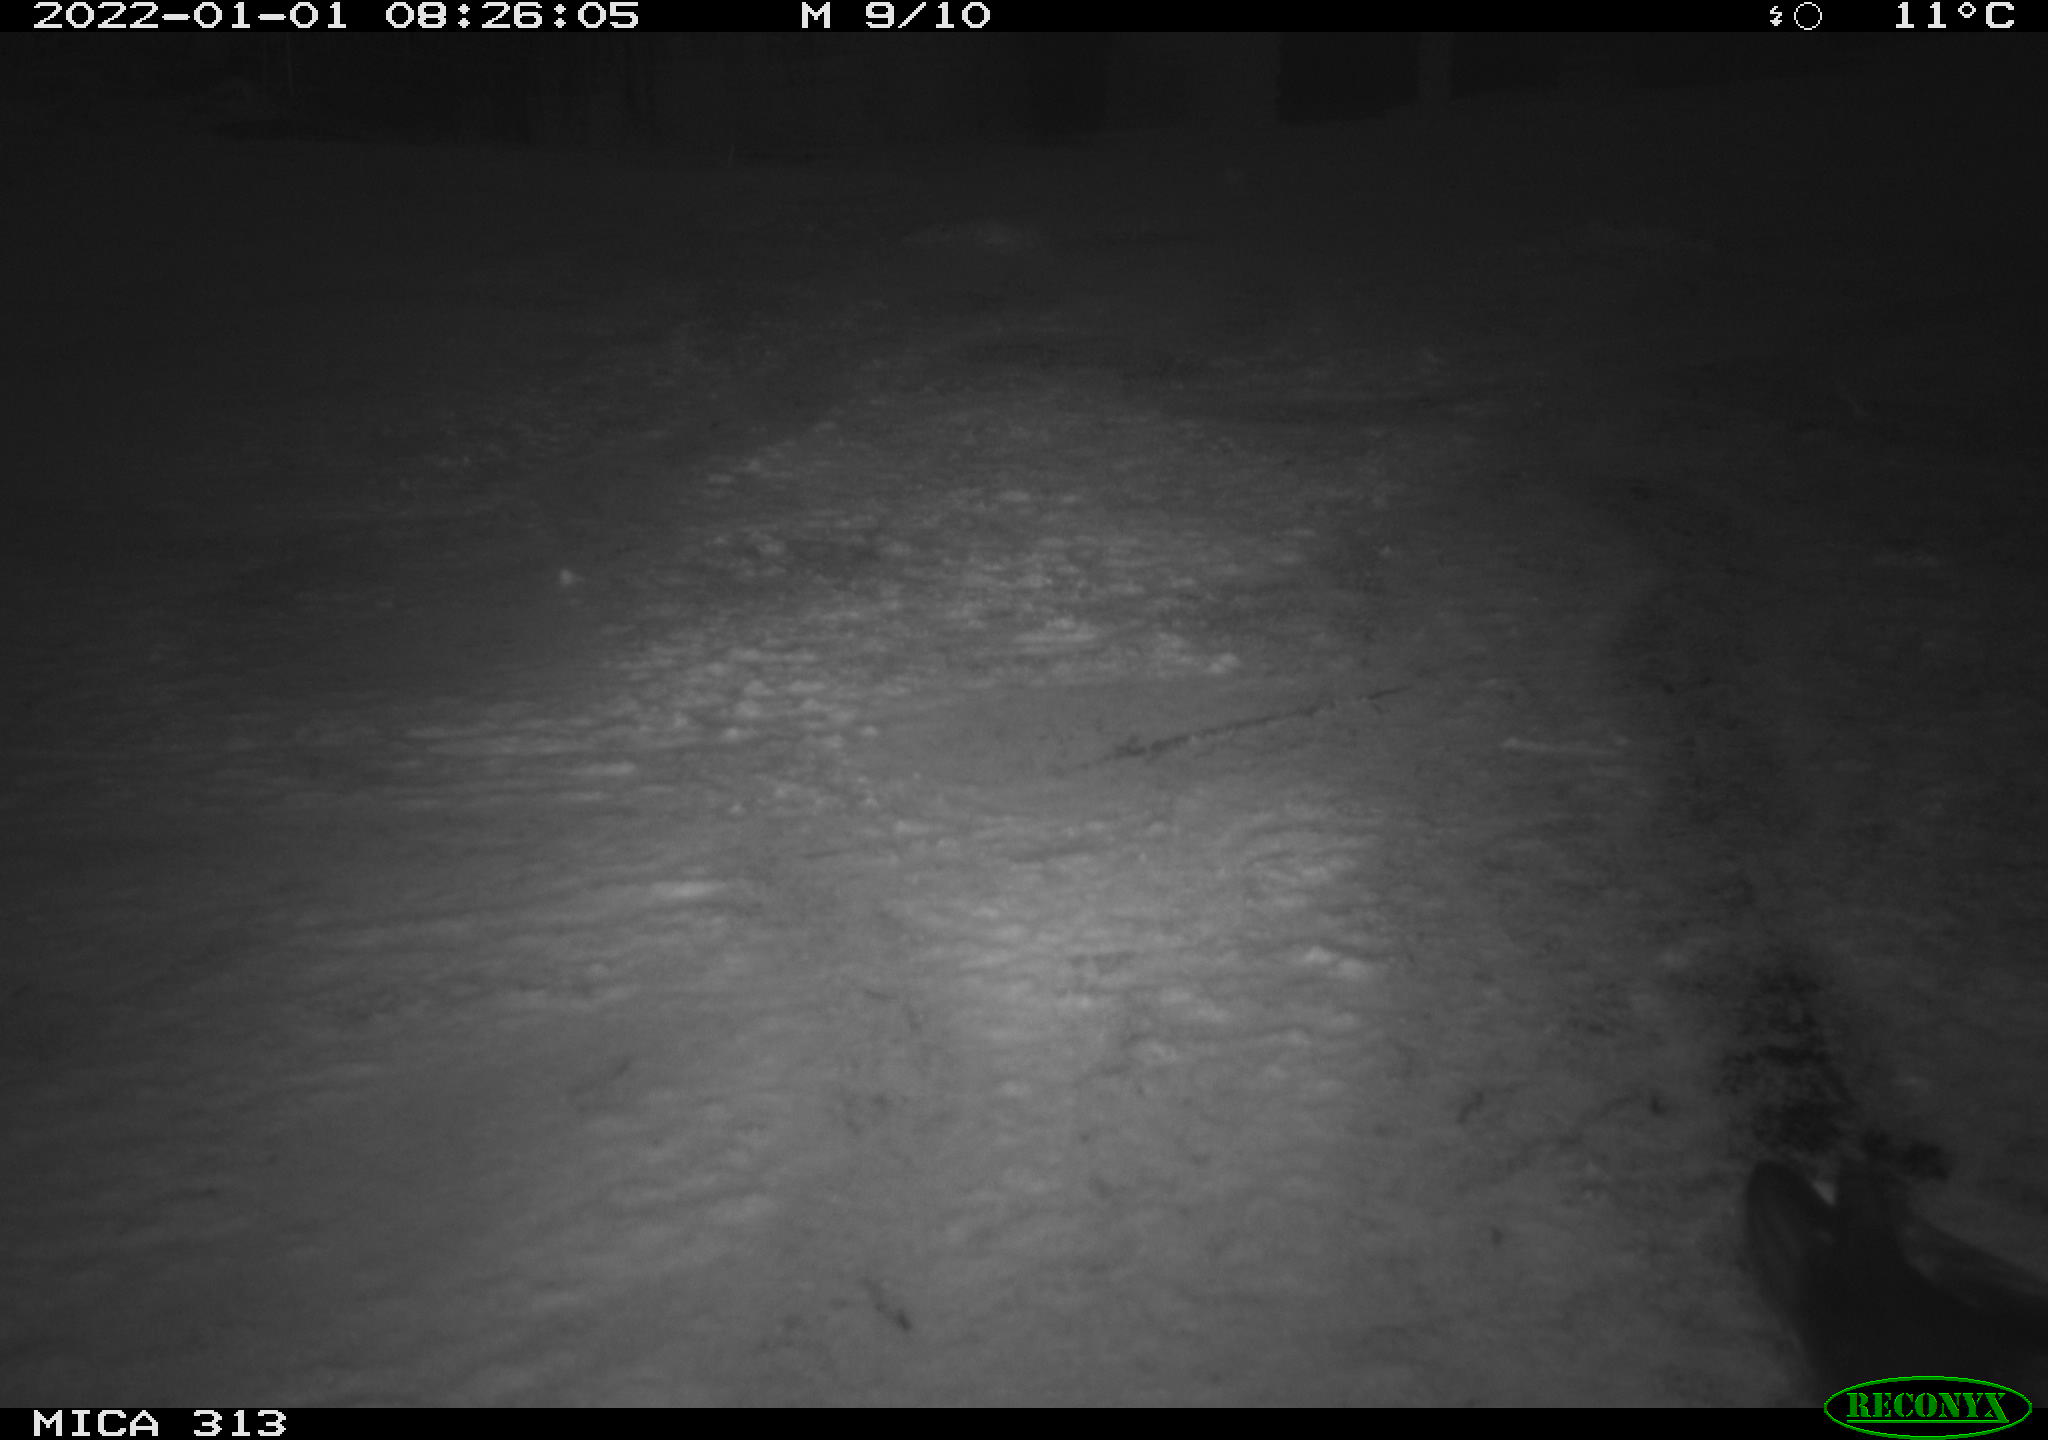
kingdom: Animalia
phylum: Chordata
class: Aves
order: Gruiformes
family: Rallidae
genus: Gallinula
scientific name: Gallinula chloropus
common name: Common moorhen
